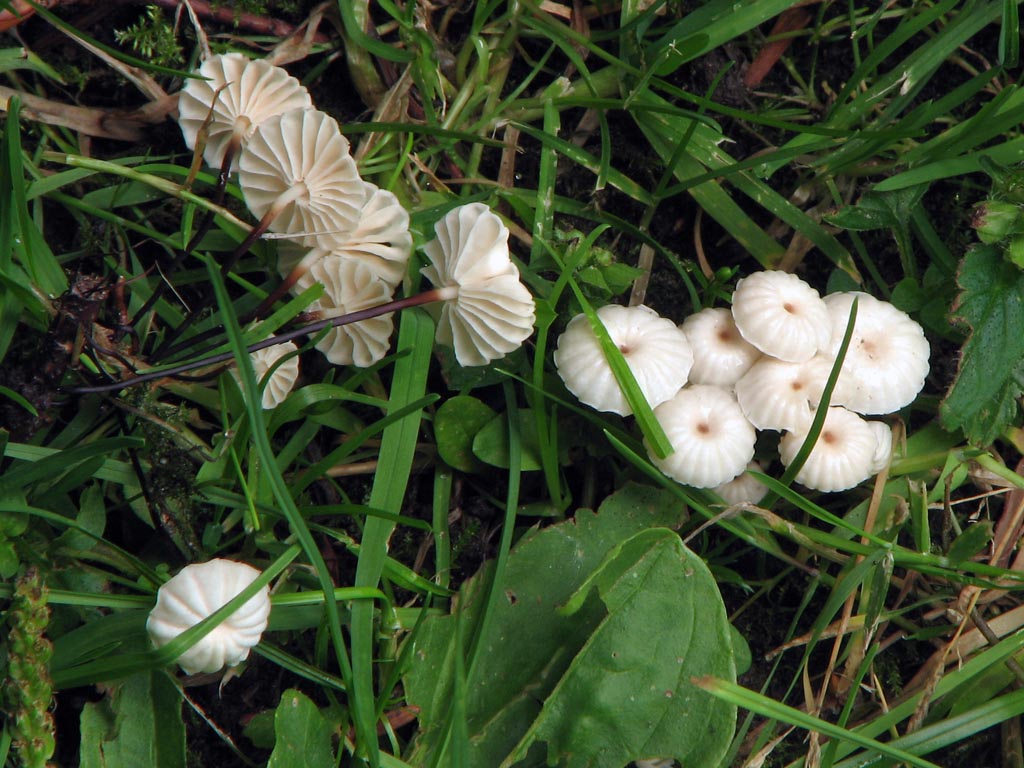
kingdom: Fungi
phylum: Basidiomycota
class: Agaricomycetes
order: Agaricales
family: Marasmiaceae
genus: Marasmius
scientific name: Marasmius rotula
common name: hjul-bruskhat
